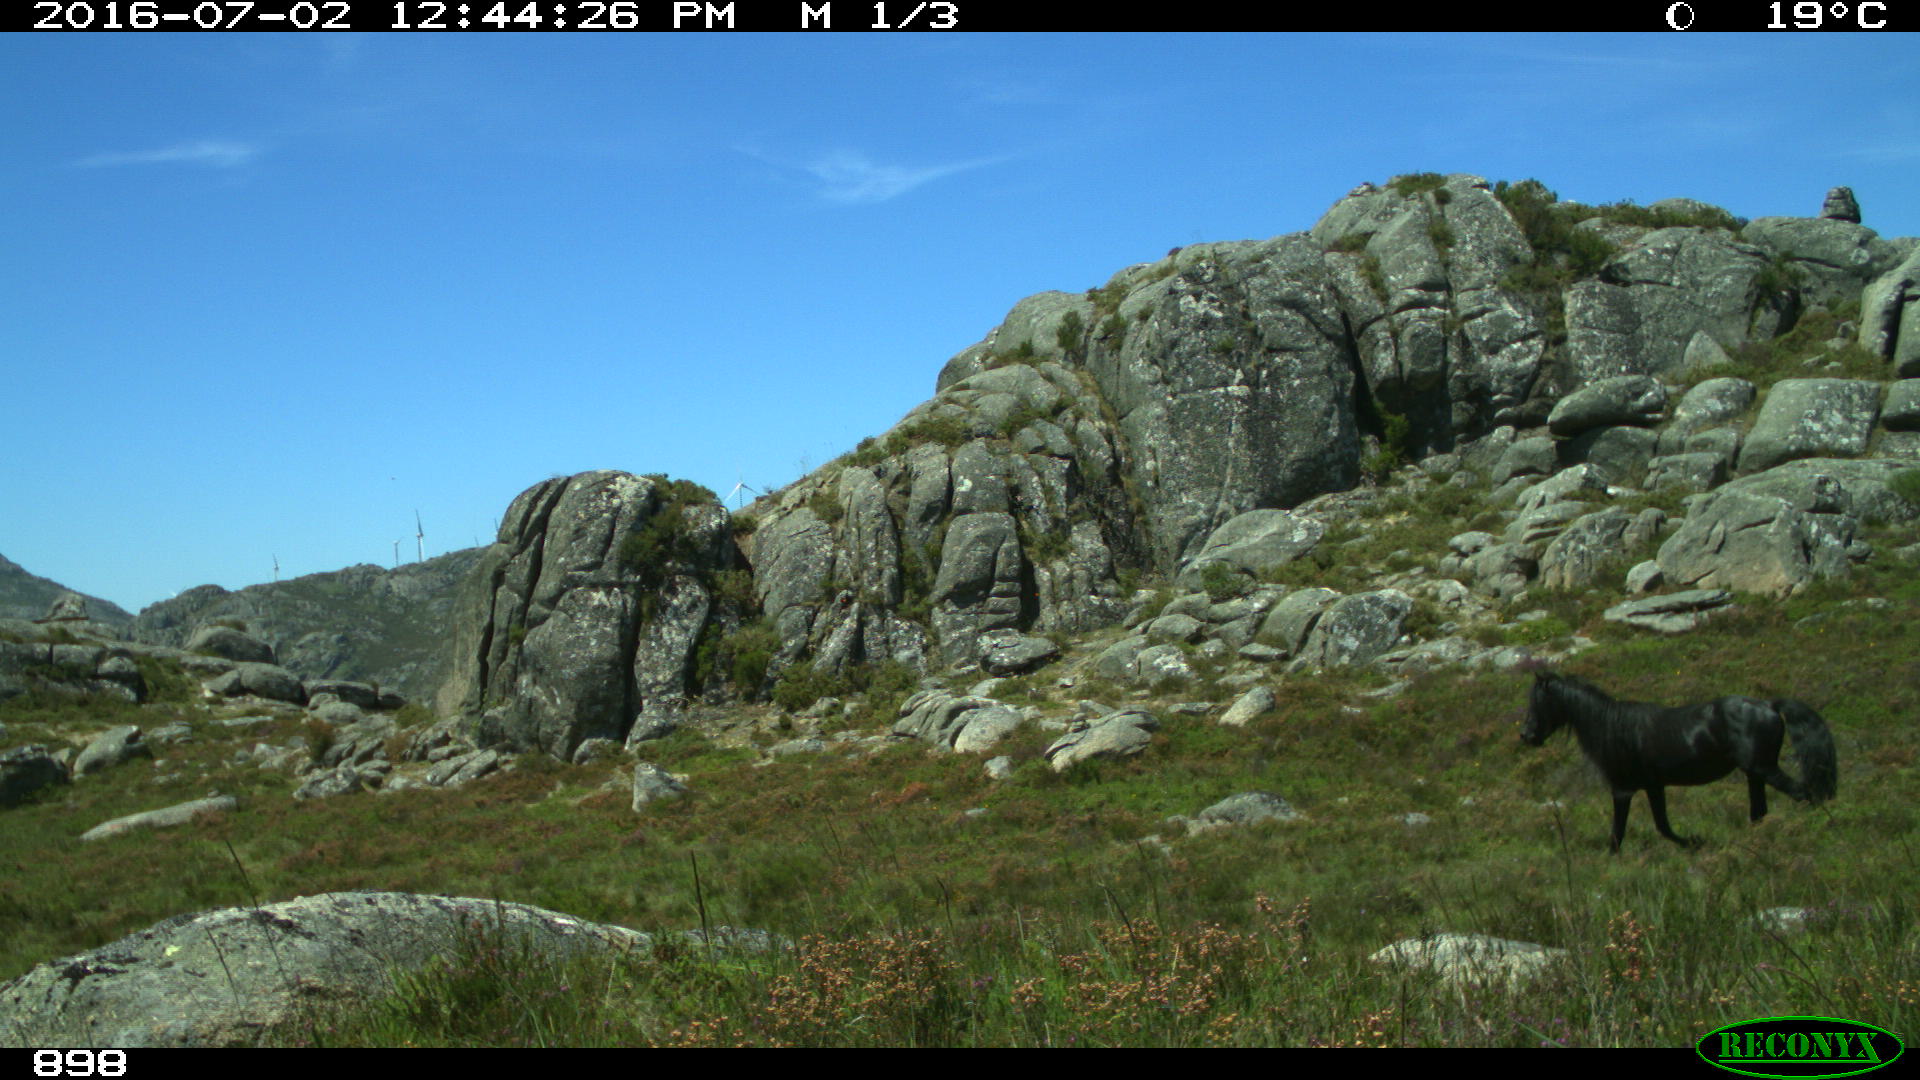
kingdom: Animalia
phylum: Chordata
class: Mammalia
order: Perissodactyla
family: Equidae
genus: Equus
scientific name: Equus caballus
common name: Horse
